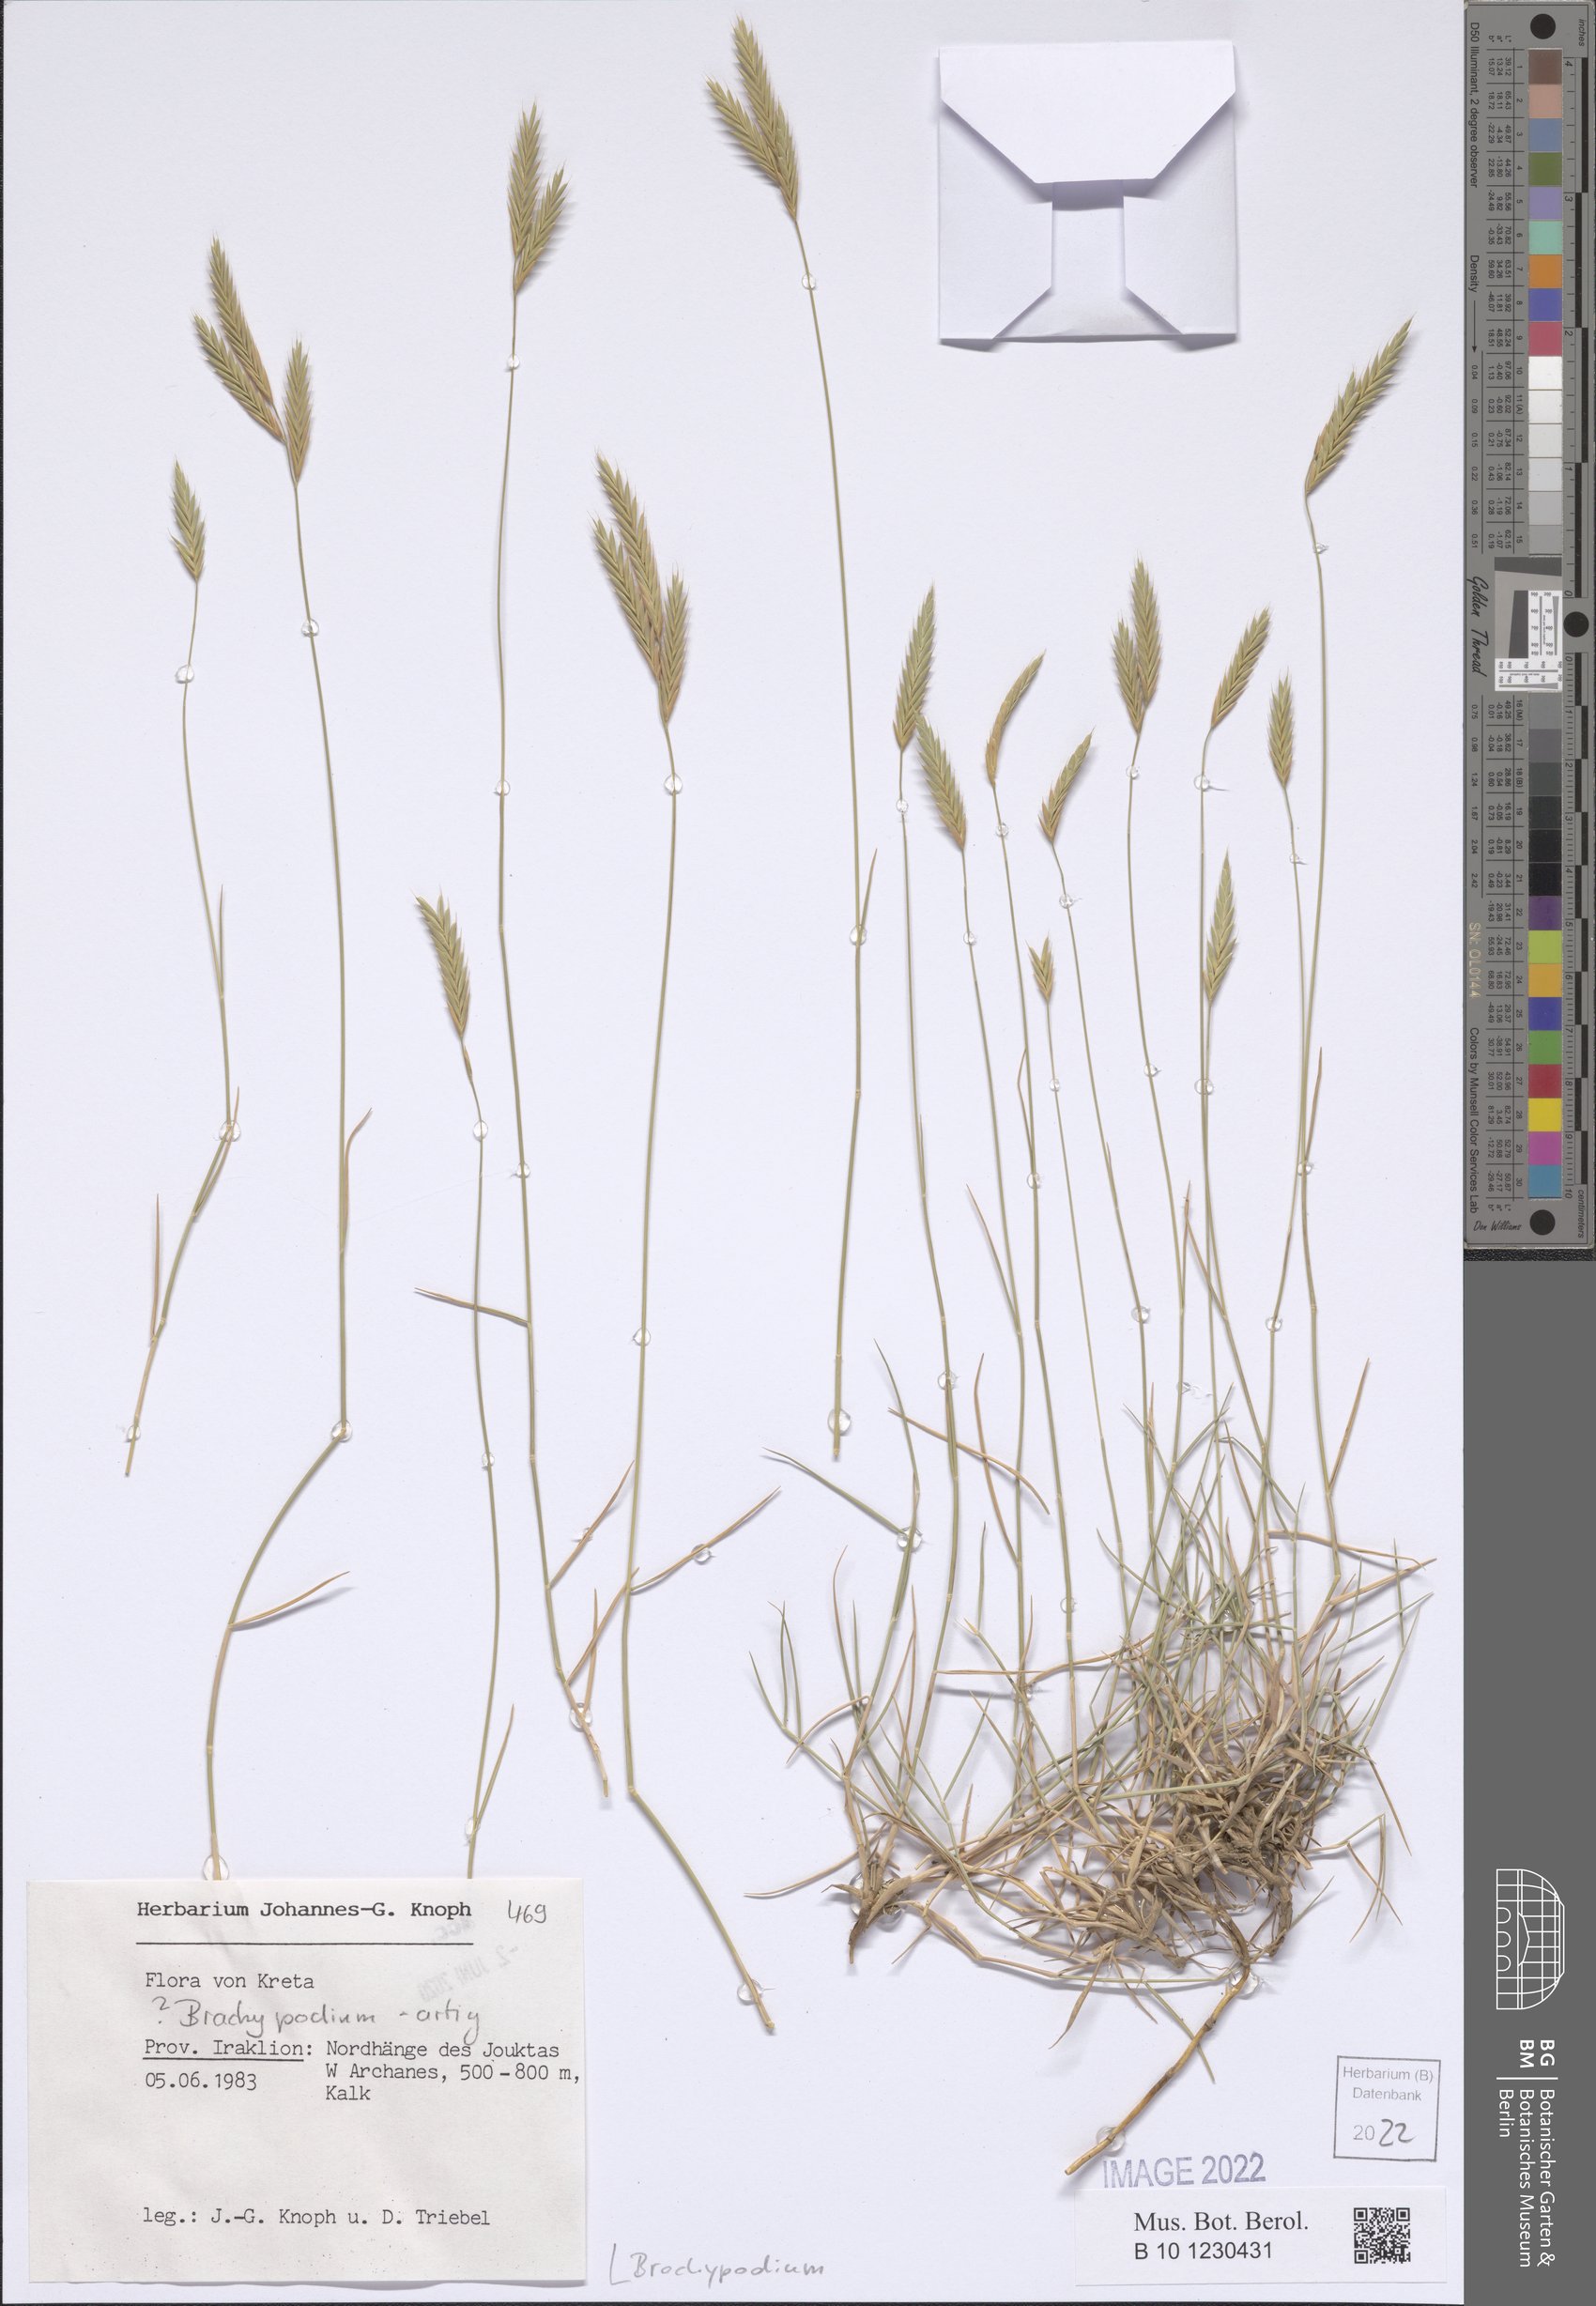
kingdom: Plantae
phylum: Tracheophyta
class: Liliopsida
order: Poales
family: Poaceae
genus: Brachypodium
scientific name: Brachypodium
